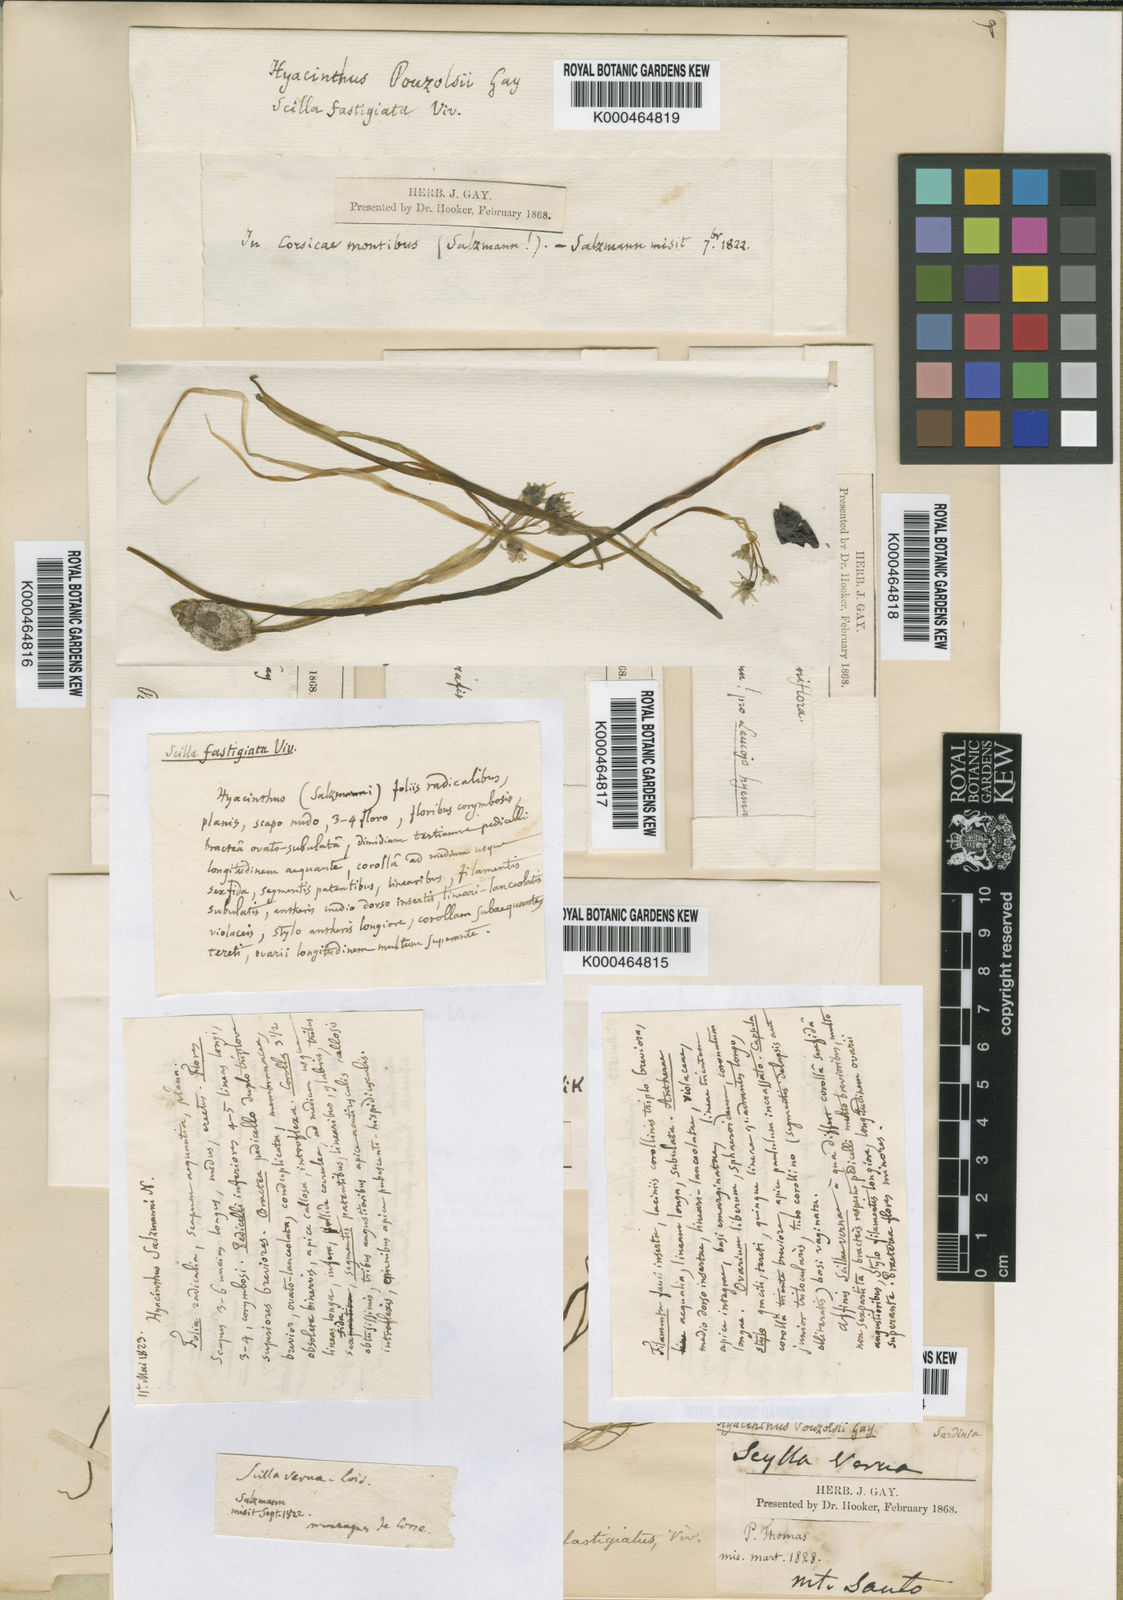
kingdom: Plantae
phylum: Tracheophyta
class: Liliopsida
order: Asparagales
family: Asparagaceae
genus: Brimeura
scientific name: Brimeura fastigiata
